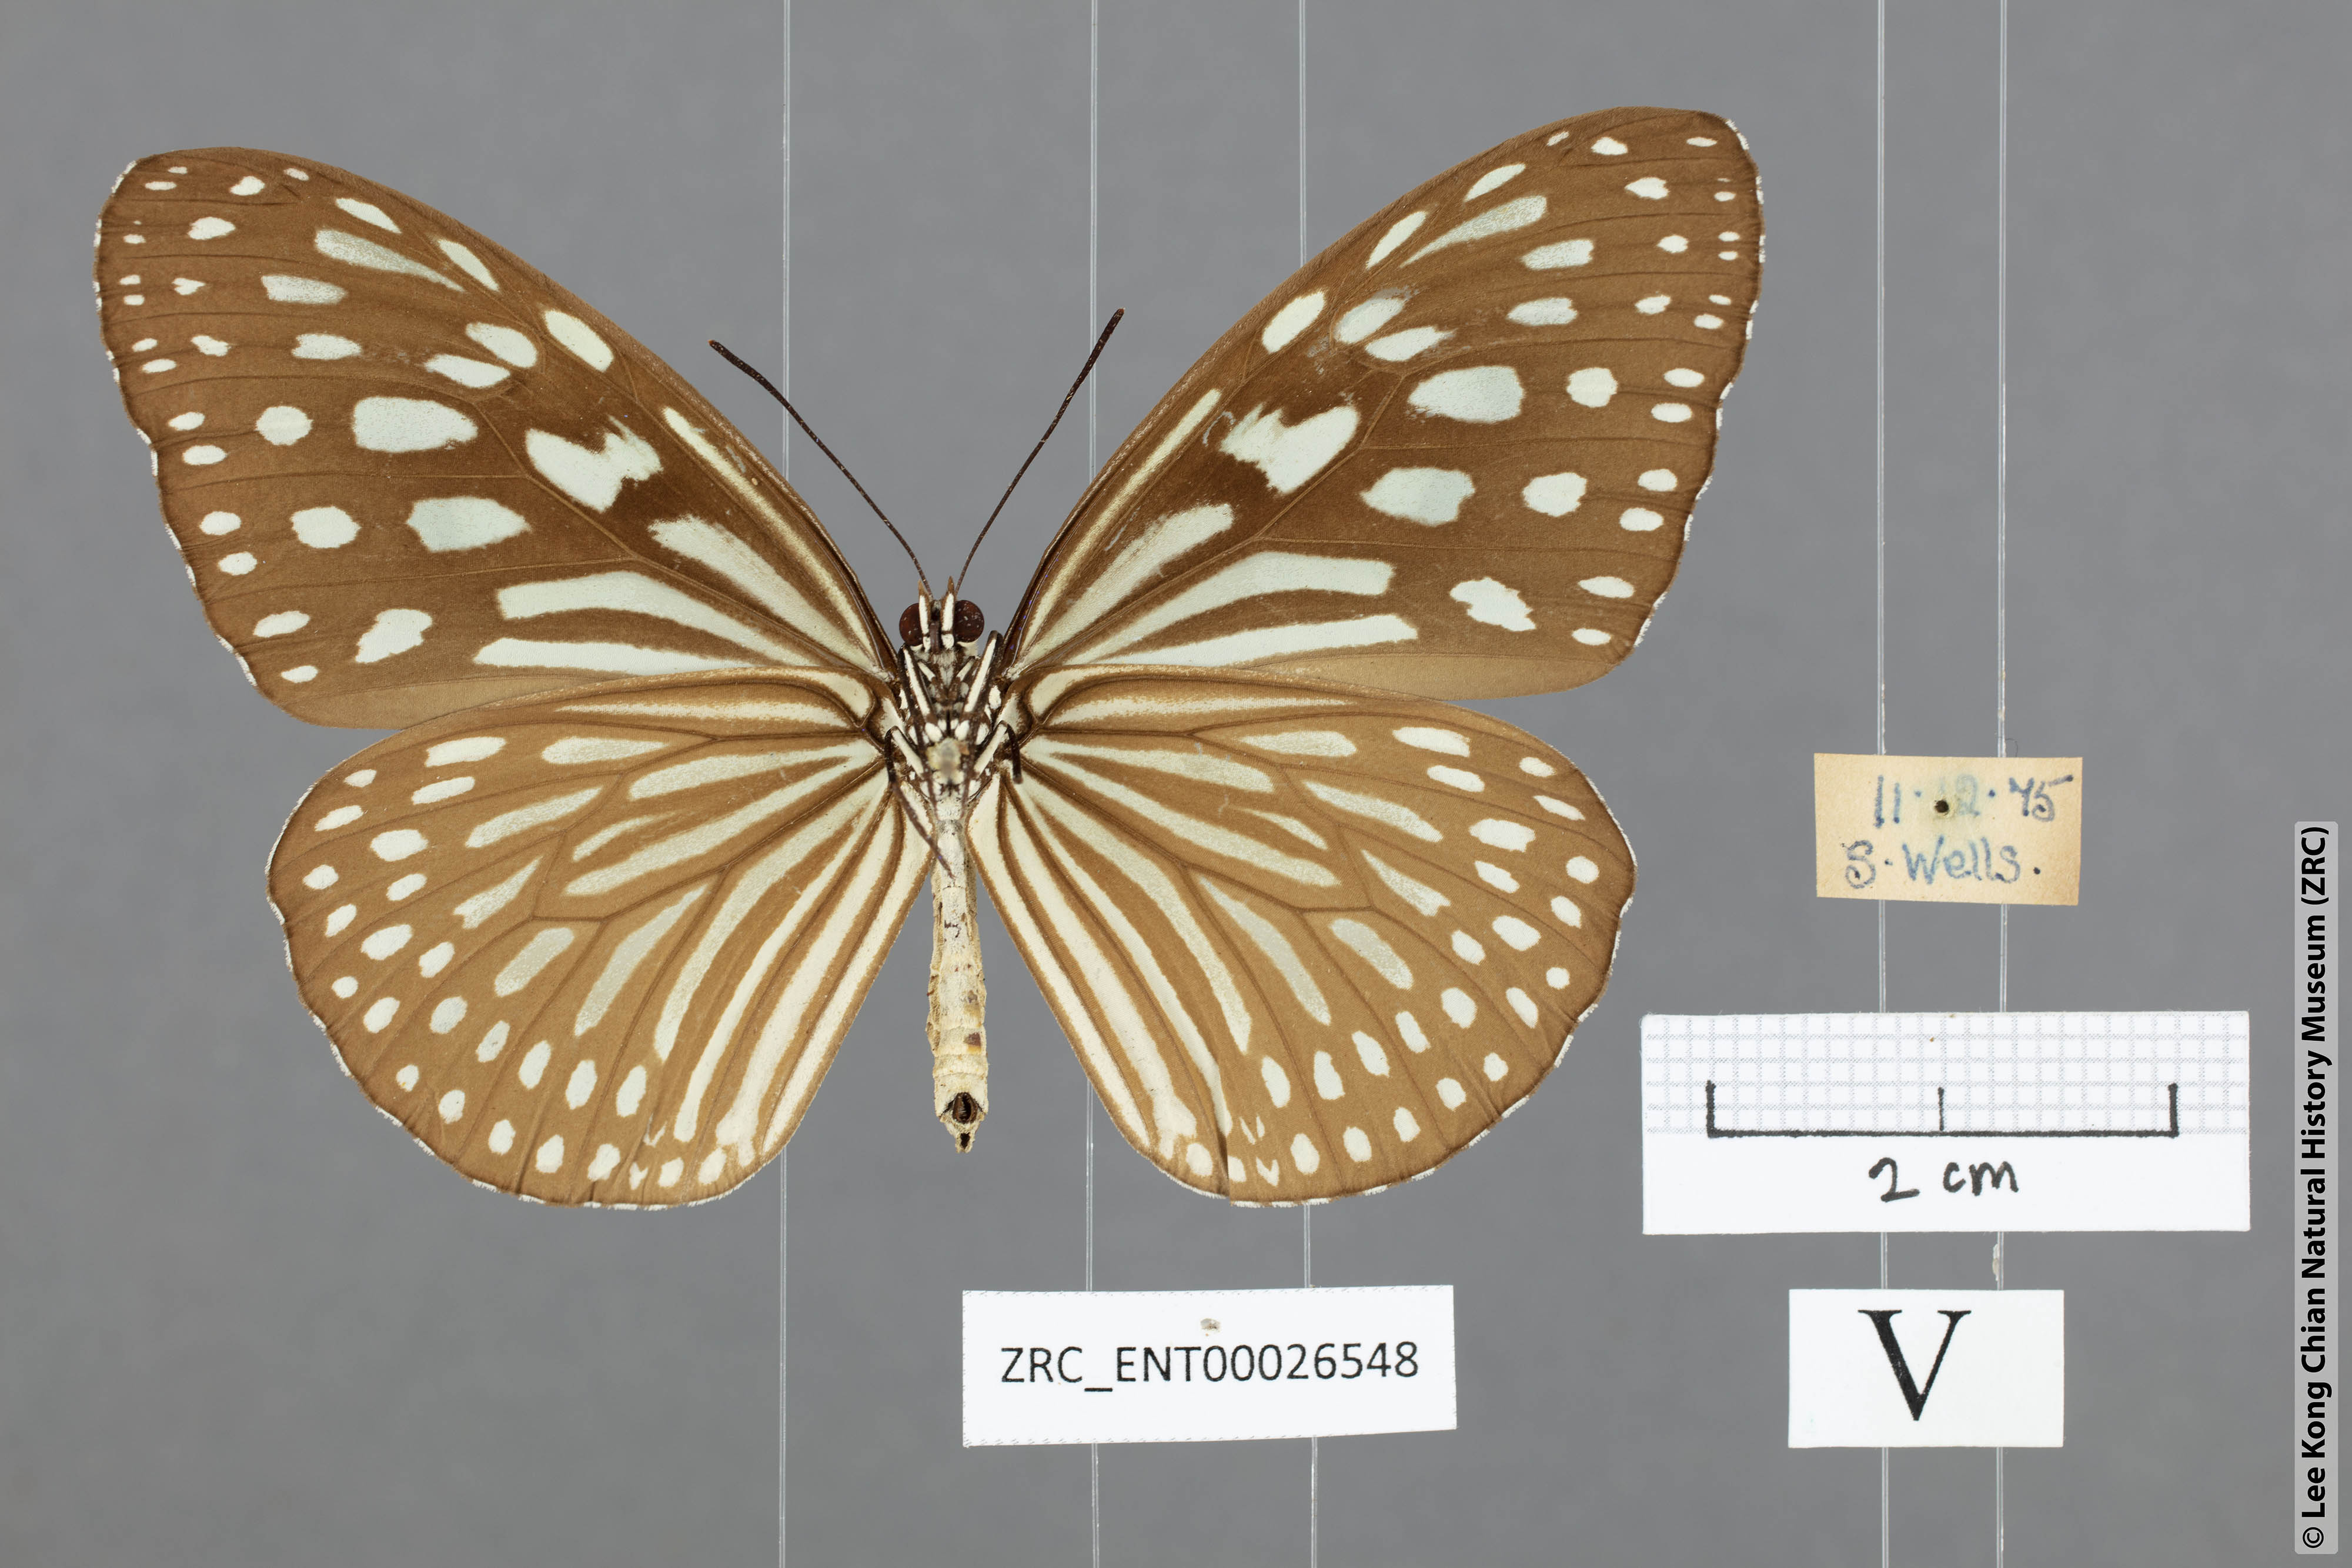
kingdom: Animalia
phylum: Arthropoda
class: Insecta
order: Lepidoptera
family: Nymphalidae
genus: Ideopsis
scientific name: Ideopsis similis
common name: Ceylon blue glassy tiger
